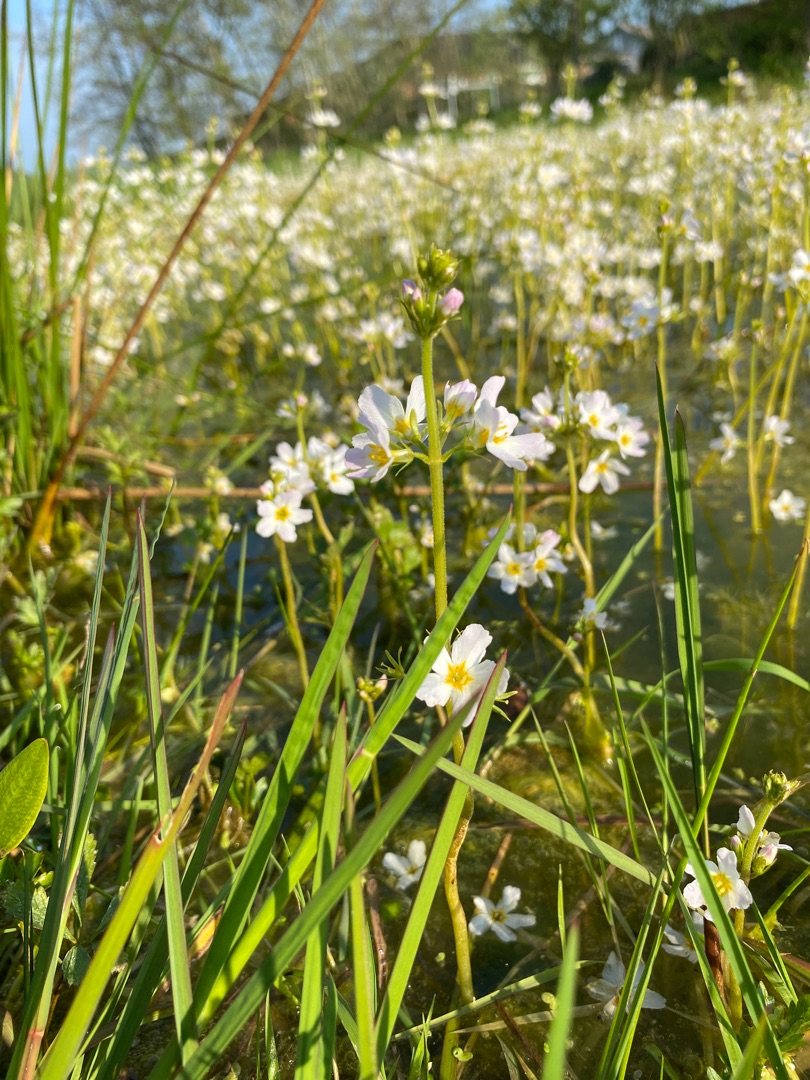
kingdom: Plantae
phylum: Tracheophyta
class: Magnoliopsida
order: Ericales
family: Primulaceae
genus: Hottonia
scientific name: Hottonia palustris
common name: Vandrøllike
